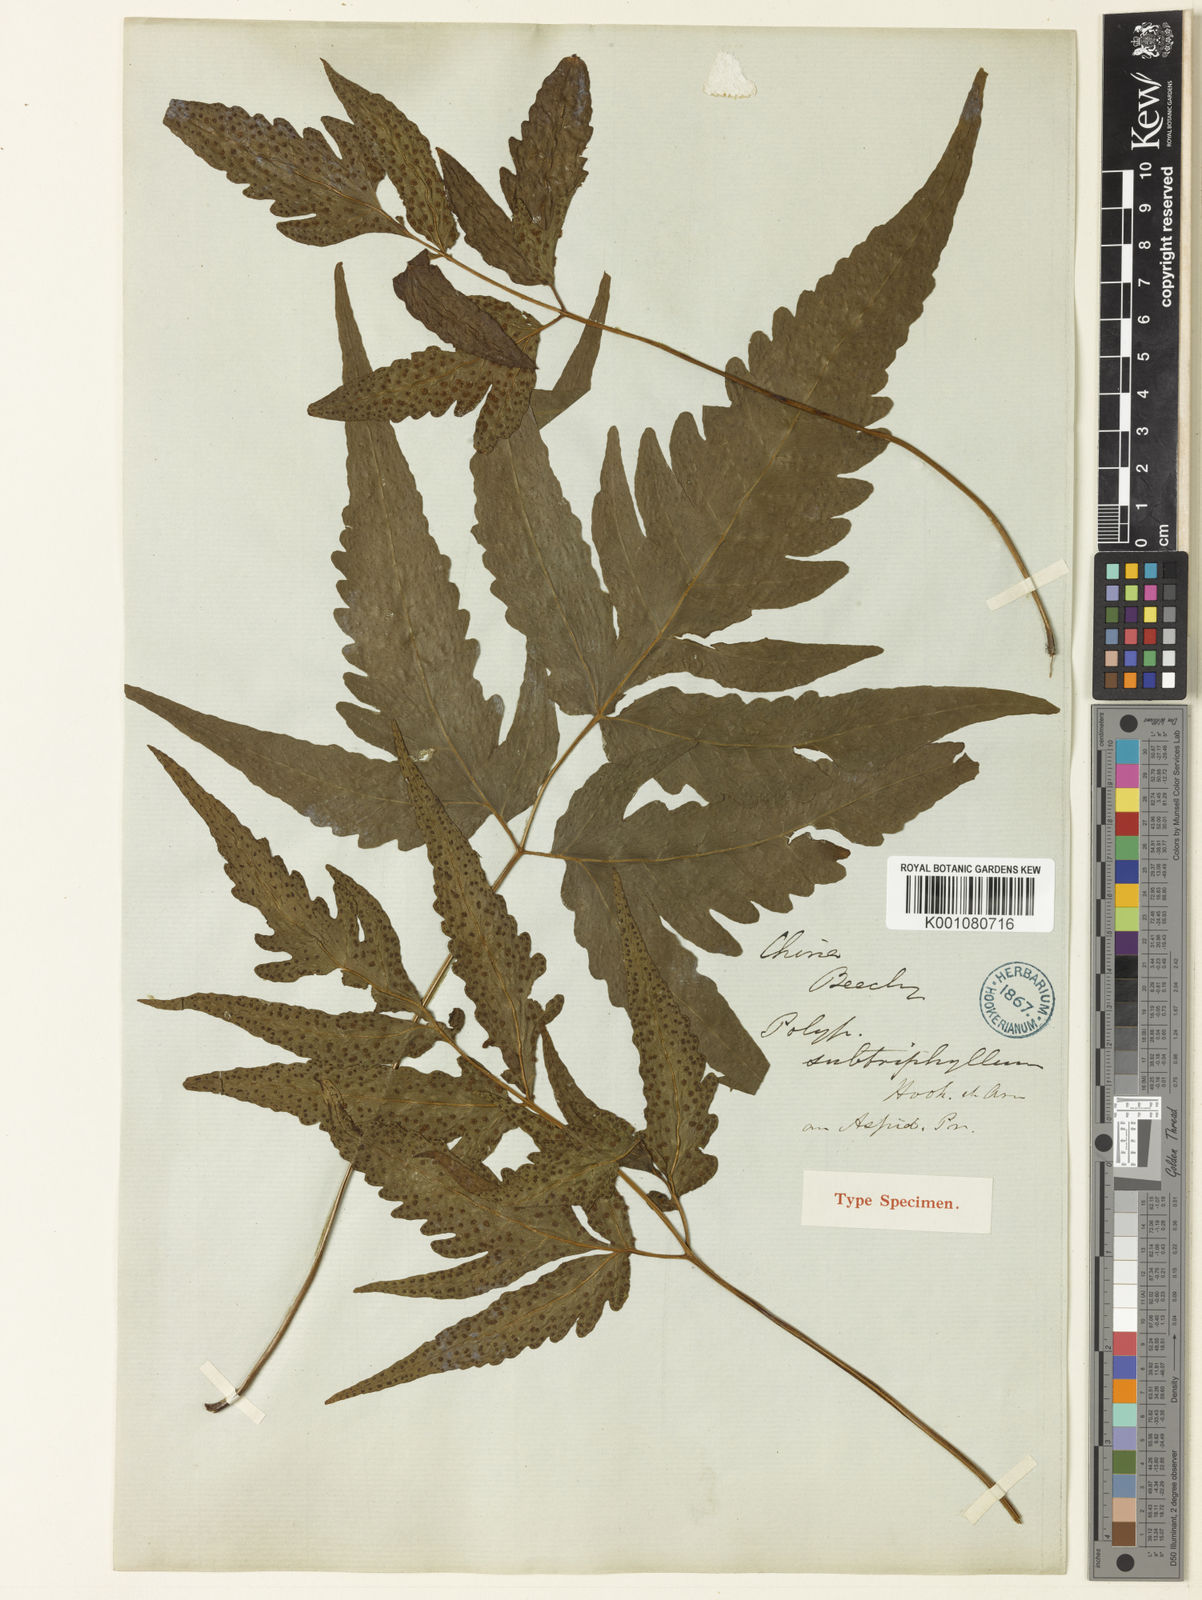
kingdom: Plantae
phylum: Tracheophyta
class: Polypodiopsida
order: Polypodiales
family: Tectariaceae
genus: Tectaria
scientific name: Tectaria subtriphylla
